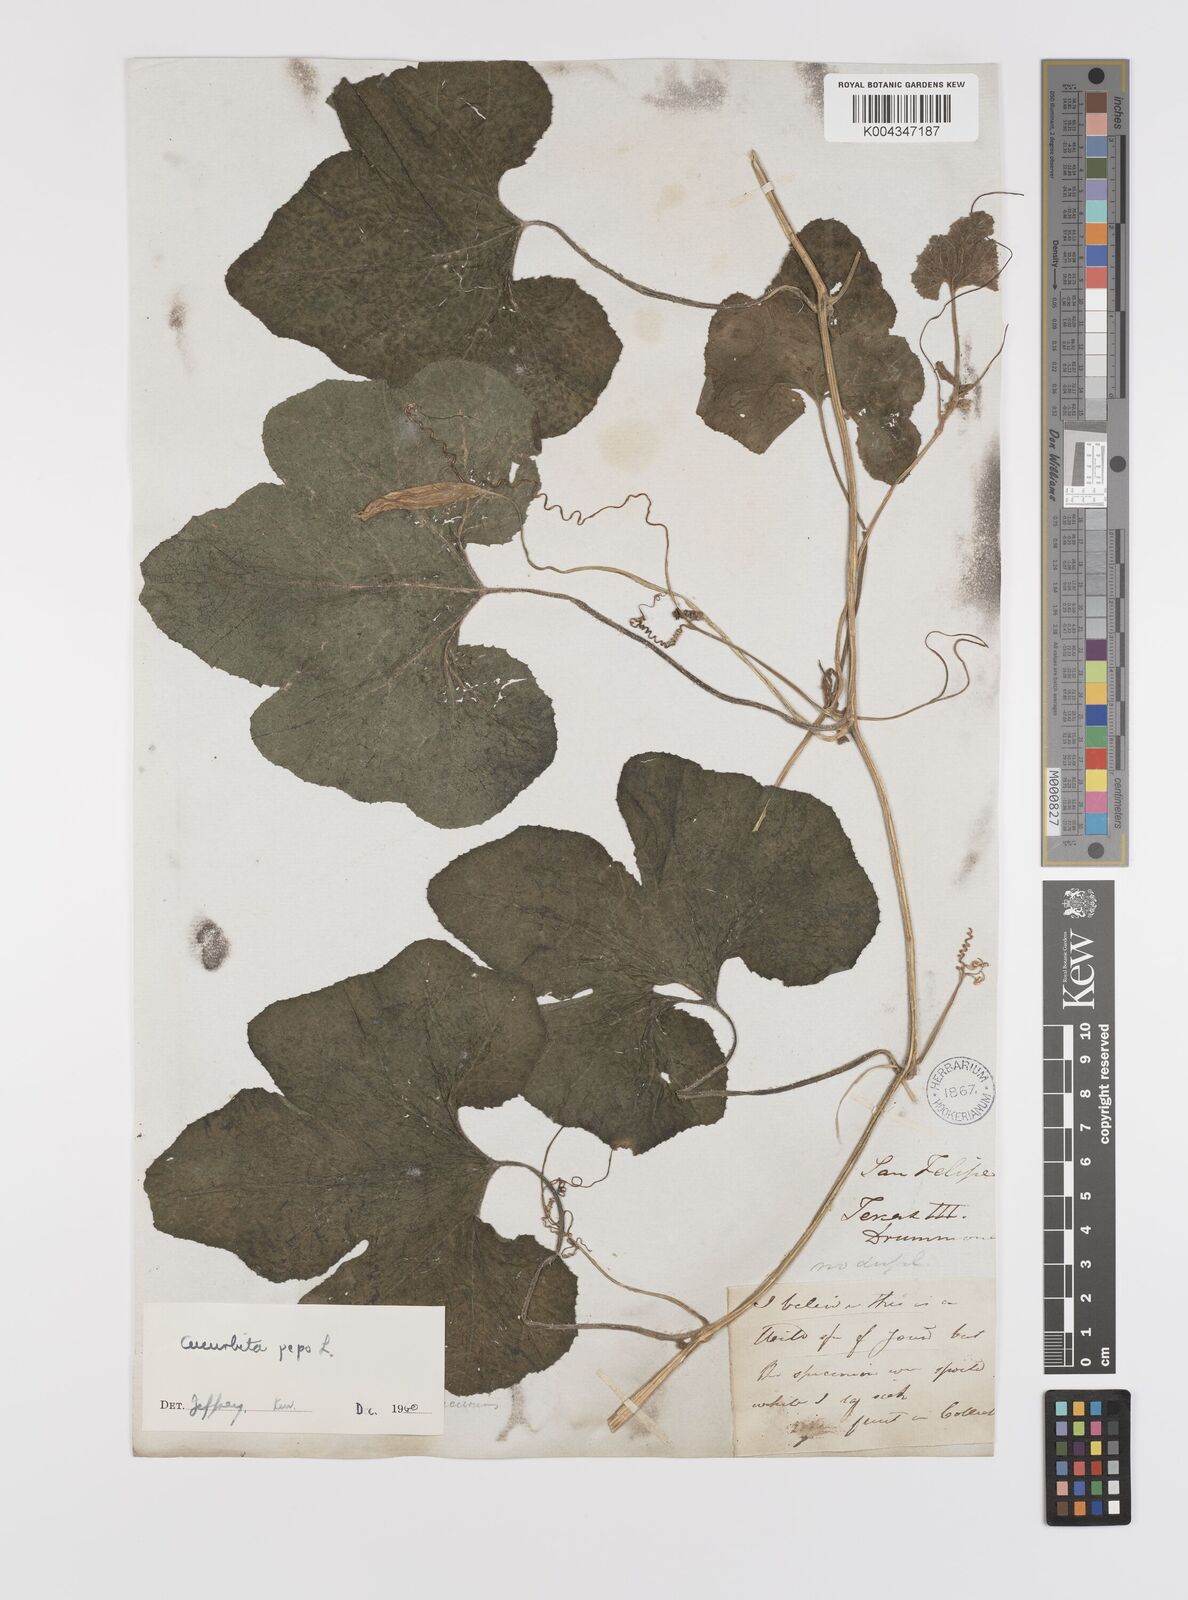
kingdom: Plantae
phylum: Tracheophyta
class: Magnoliopsida
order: Cucurbitales
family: Cucurbitaceae
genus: Cucurbita
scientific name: Cucurbita palmata
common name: Coyote-melon
